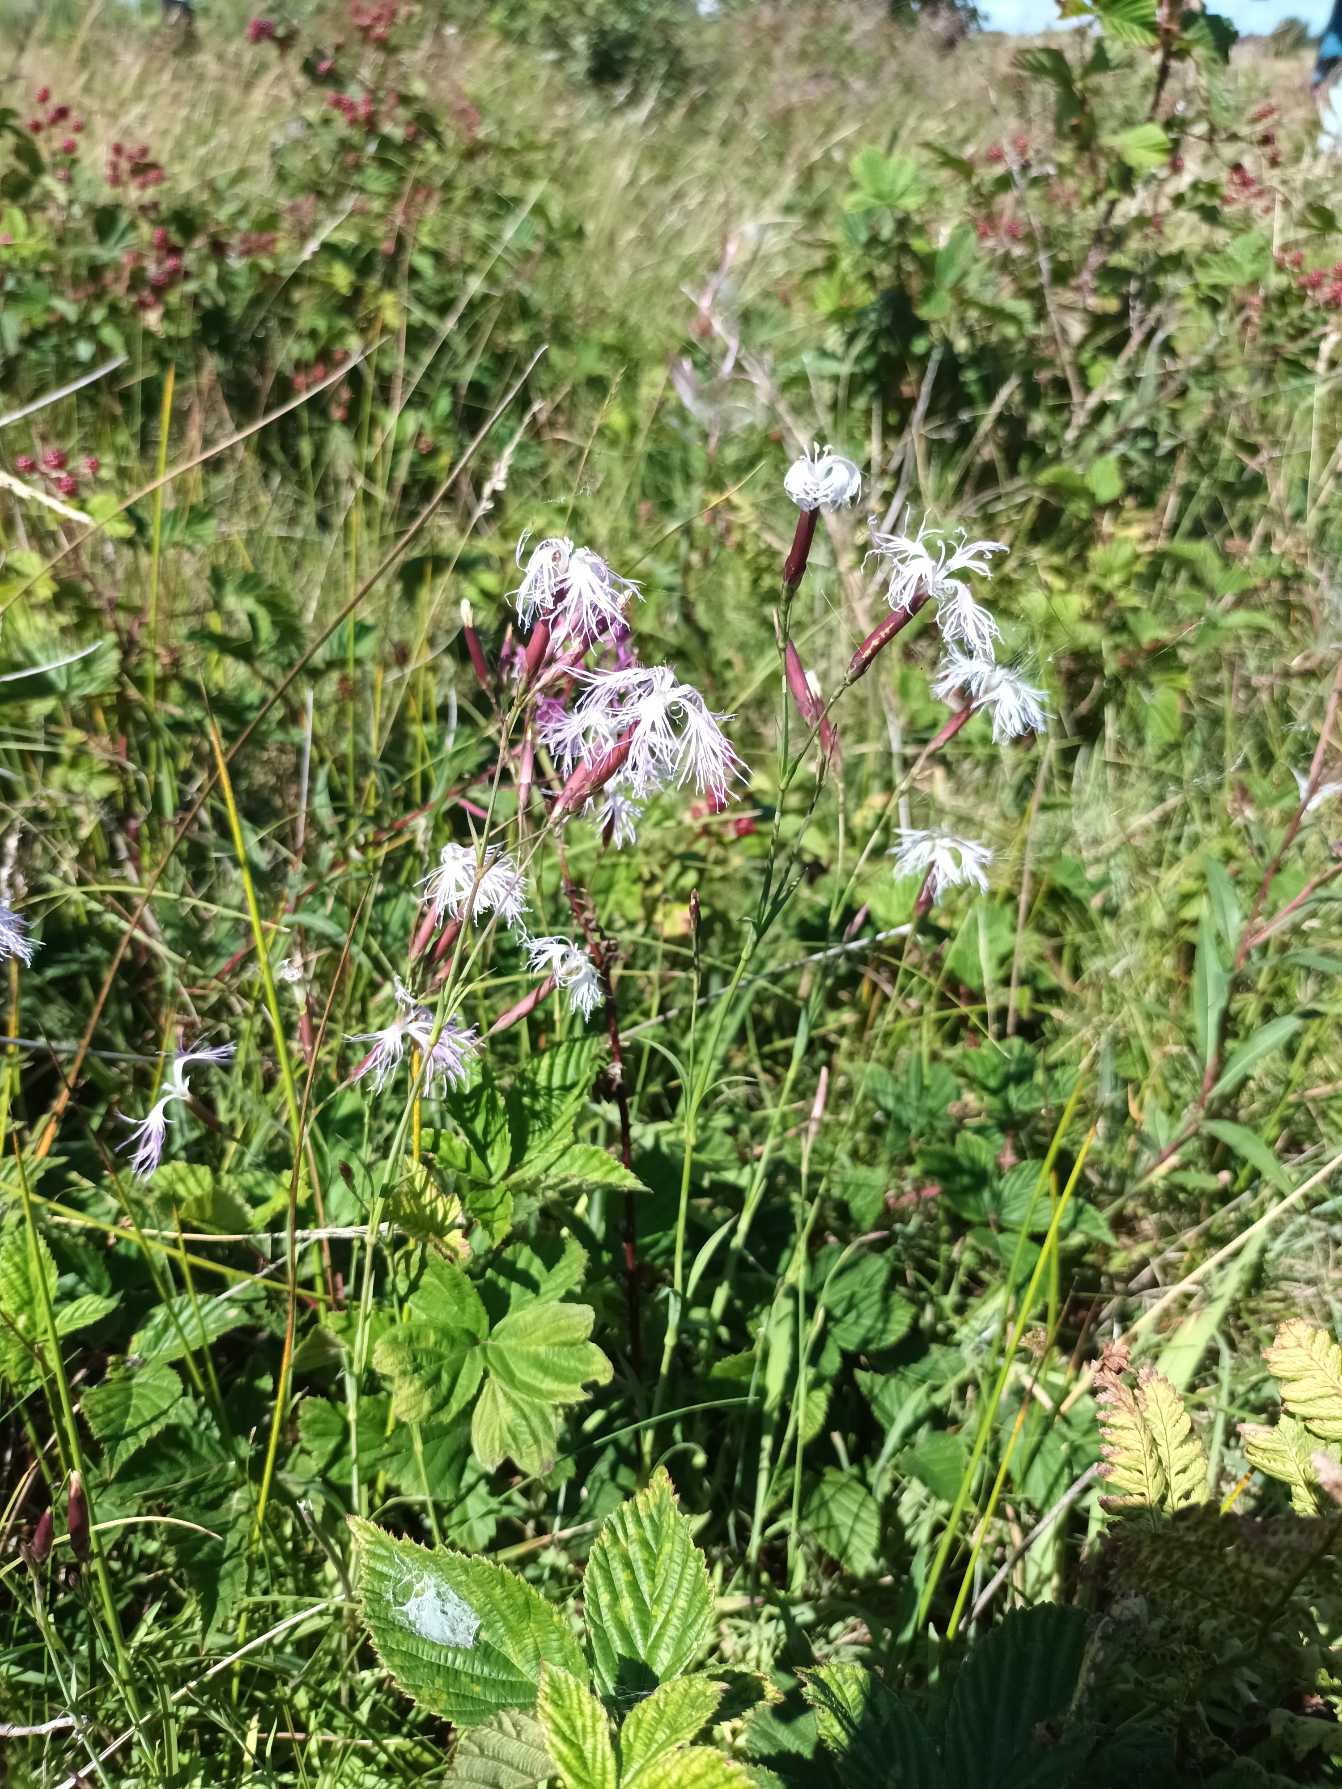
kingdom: Plantae
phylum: Tracheophyta
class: Magnoliopsida
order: Caryophyllales
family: Caryophyllaceae
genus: Dianthus
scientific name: Dianthus superbus
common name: Strand-nellike
